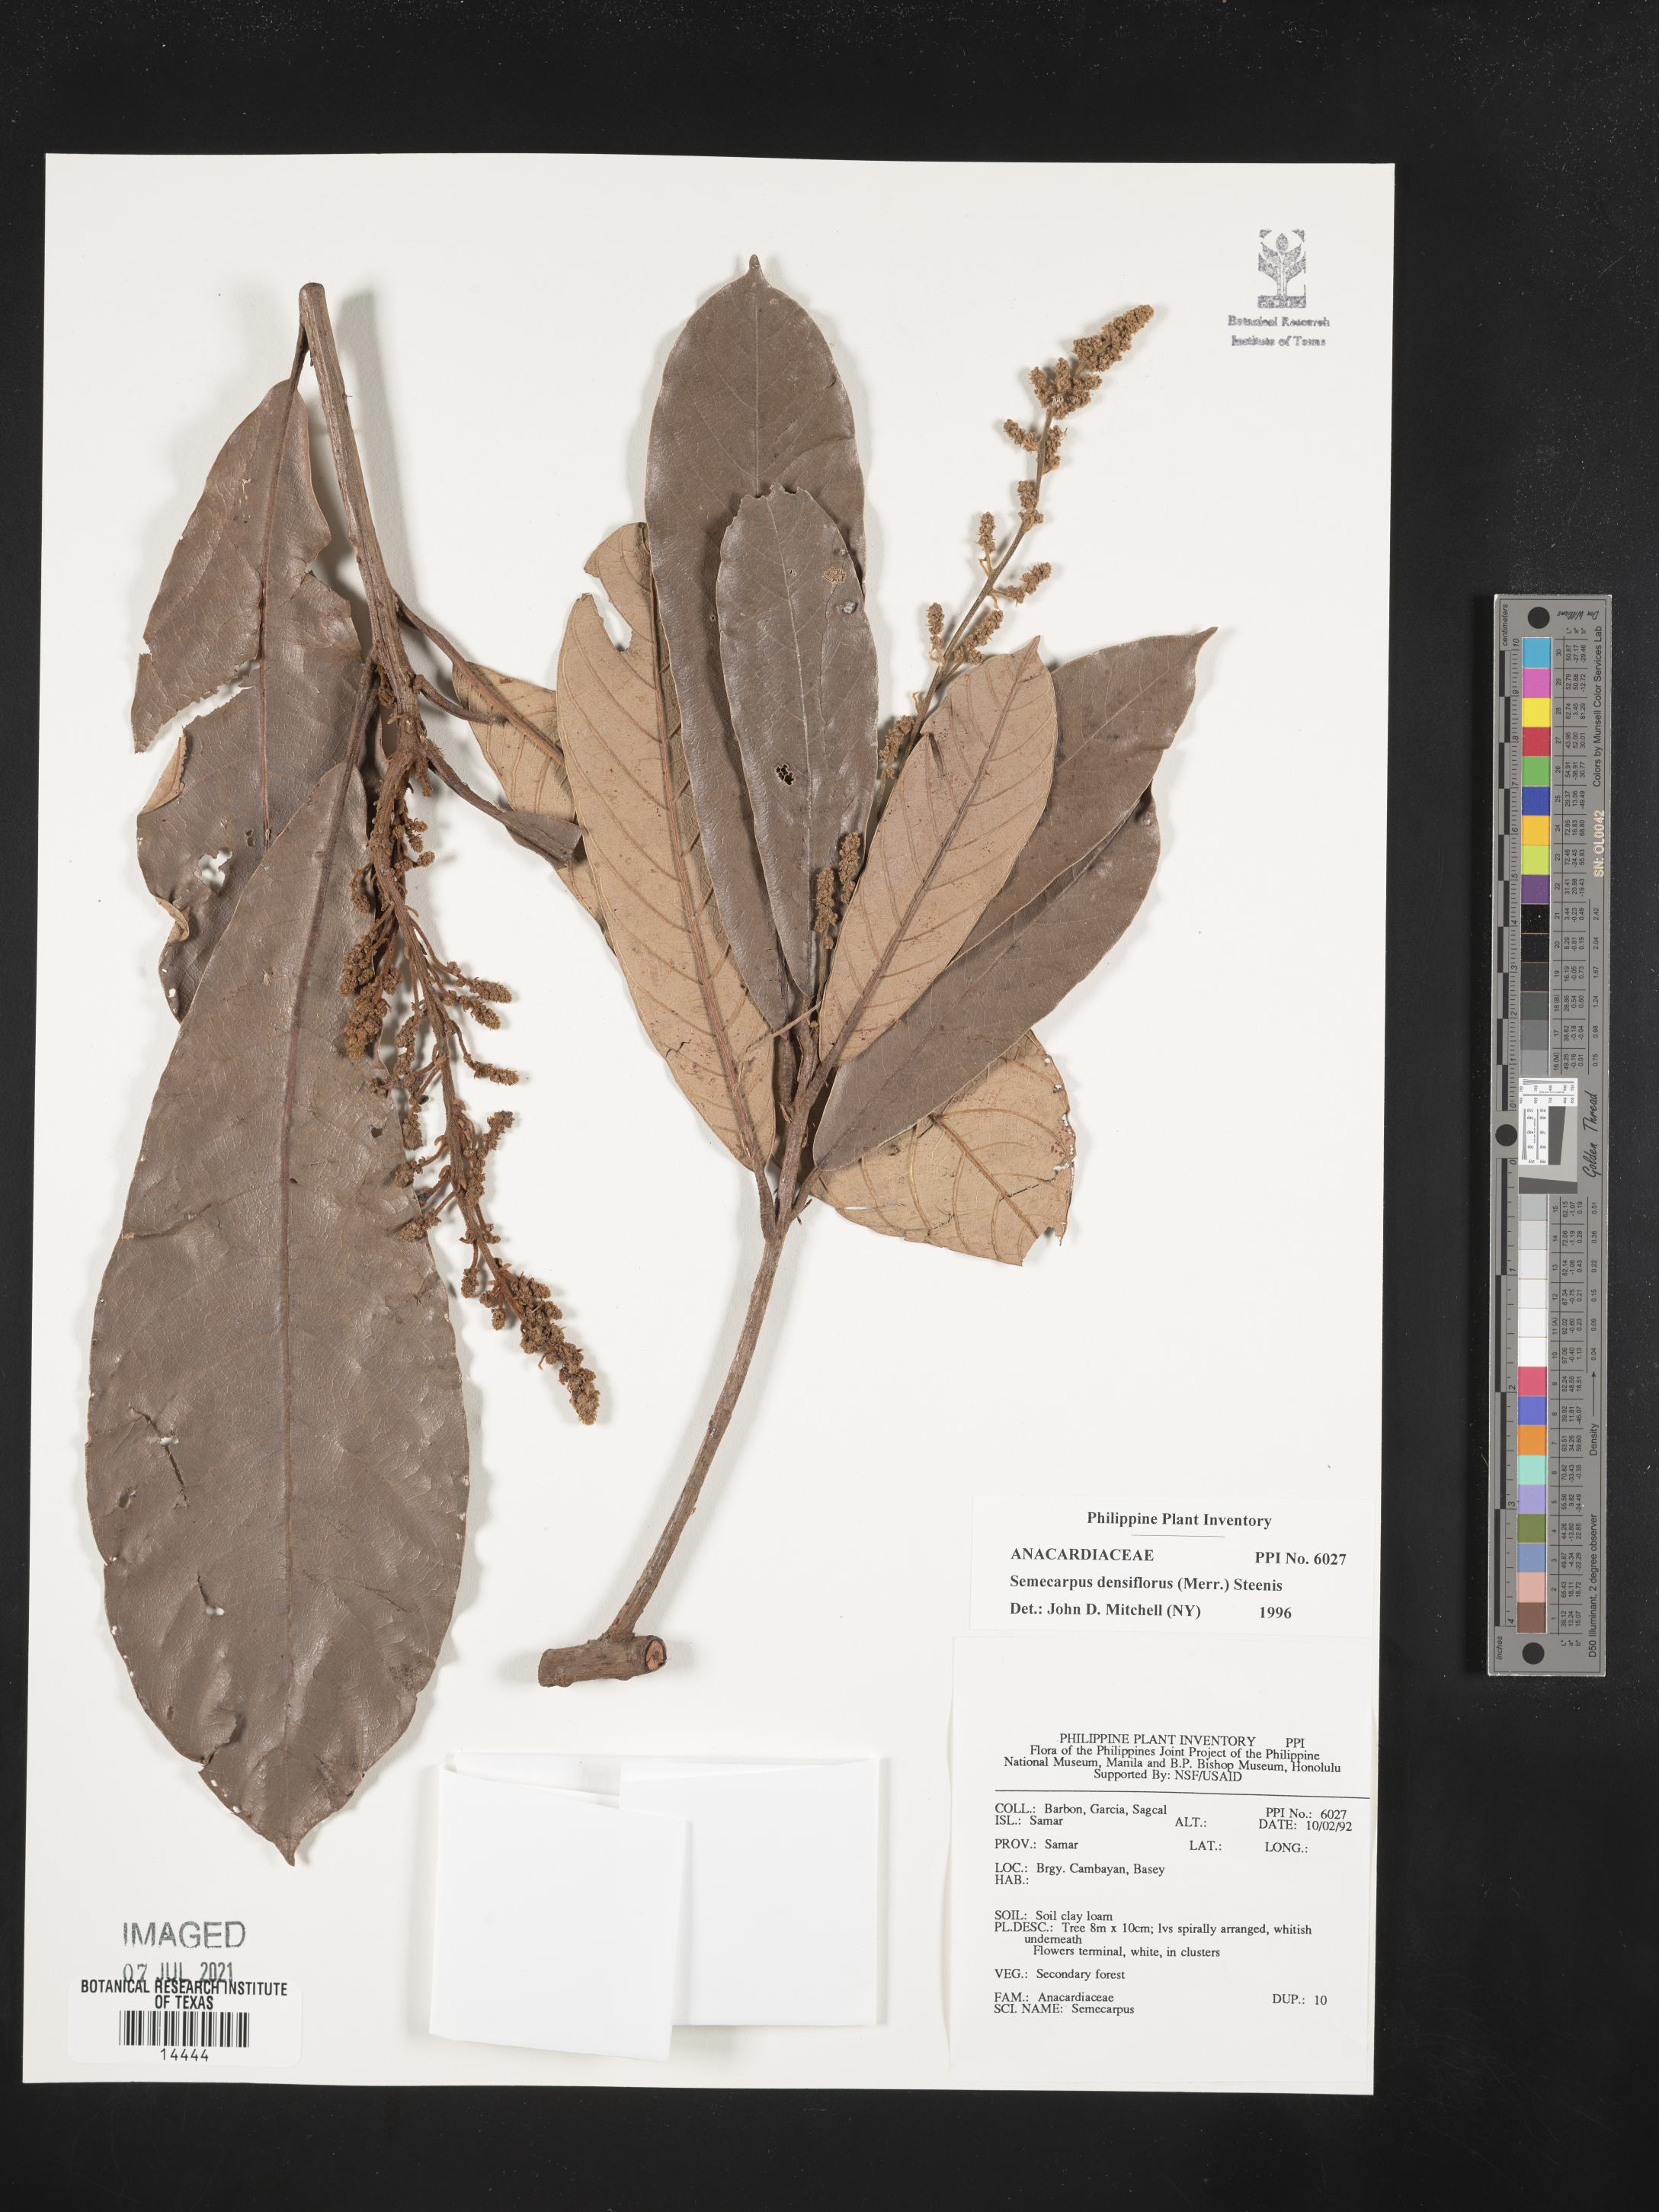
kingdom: Plantae
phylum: Tracheophyta
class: Magnoliopsida
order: Sapindales
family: Anacardiaceae
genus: Semecarpus
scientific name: Semecarpus densiflorus
